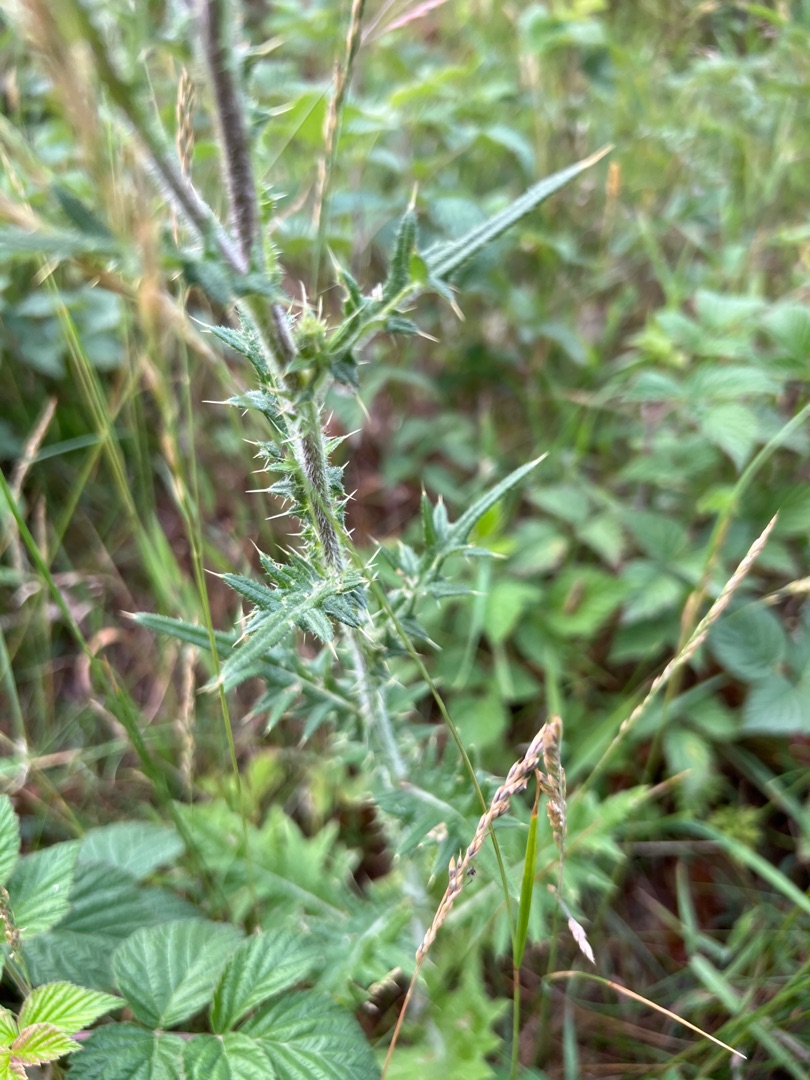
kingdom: Plantae
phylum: Tracheophyta
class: Magnoliopsida
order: Asterales
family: Asteraceae
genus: Cirsium
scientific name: Cirsium vulgare
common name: Horse-tidsel
